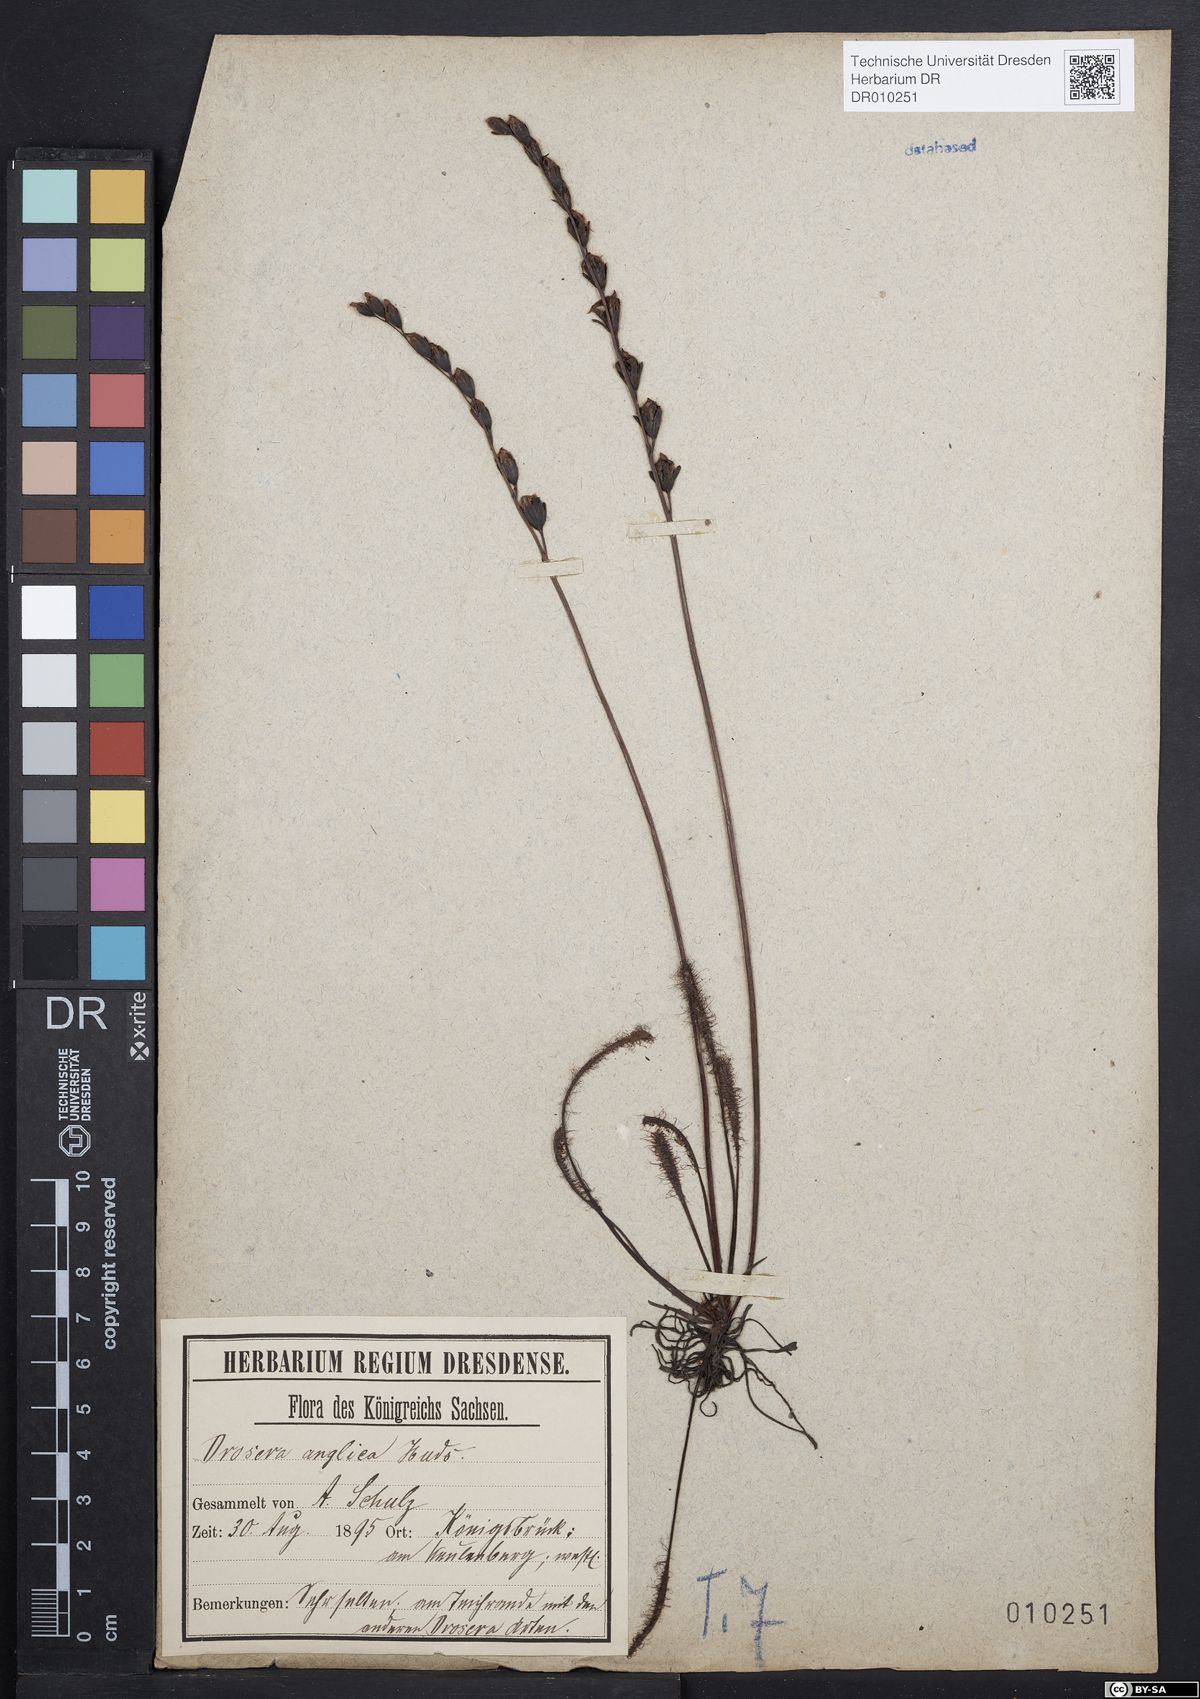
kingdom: Plantae
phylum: Tracheophyta
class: Magnoliopsida
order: Caryophyllales
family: Droseraceae
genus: Drosera
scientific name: Drosera anglica
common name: Great sundew
